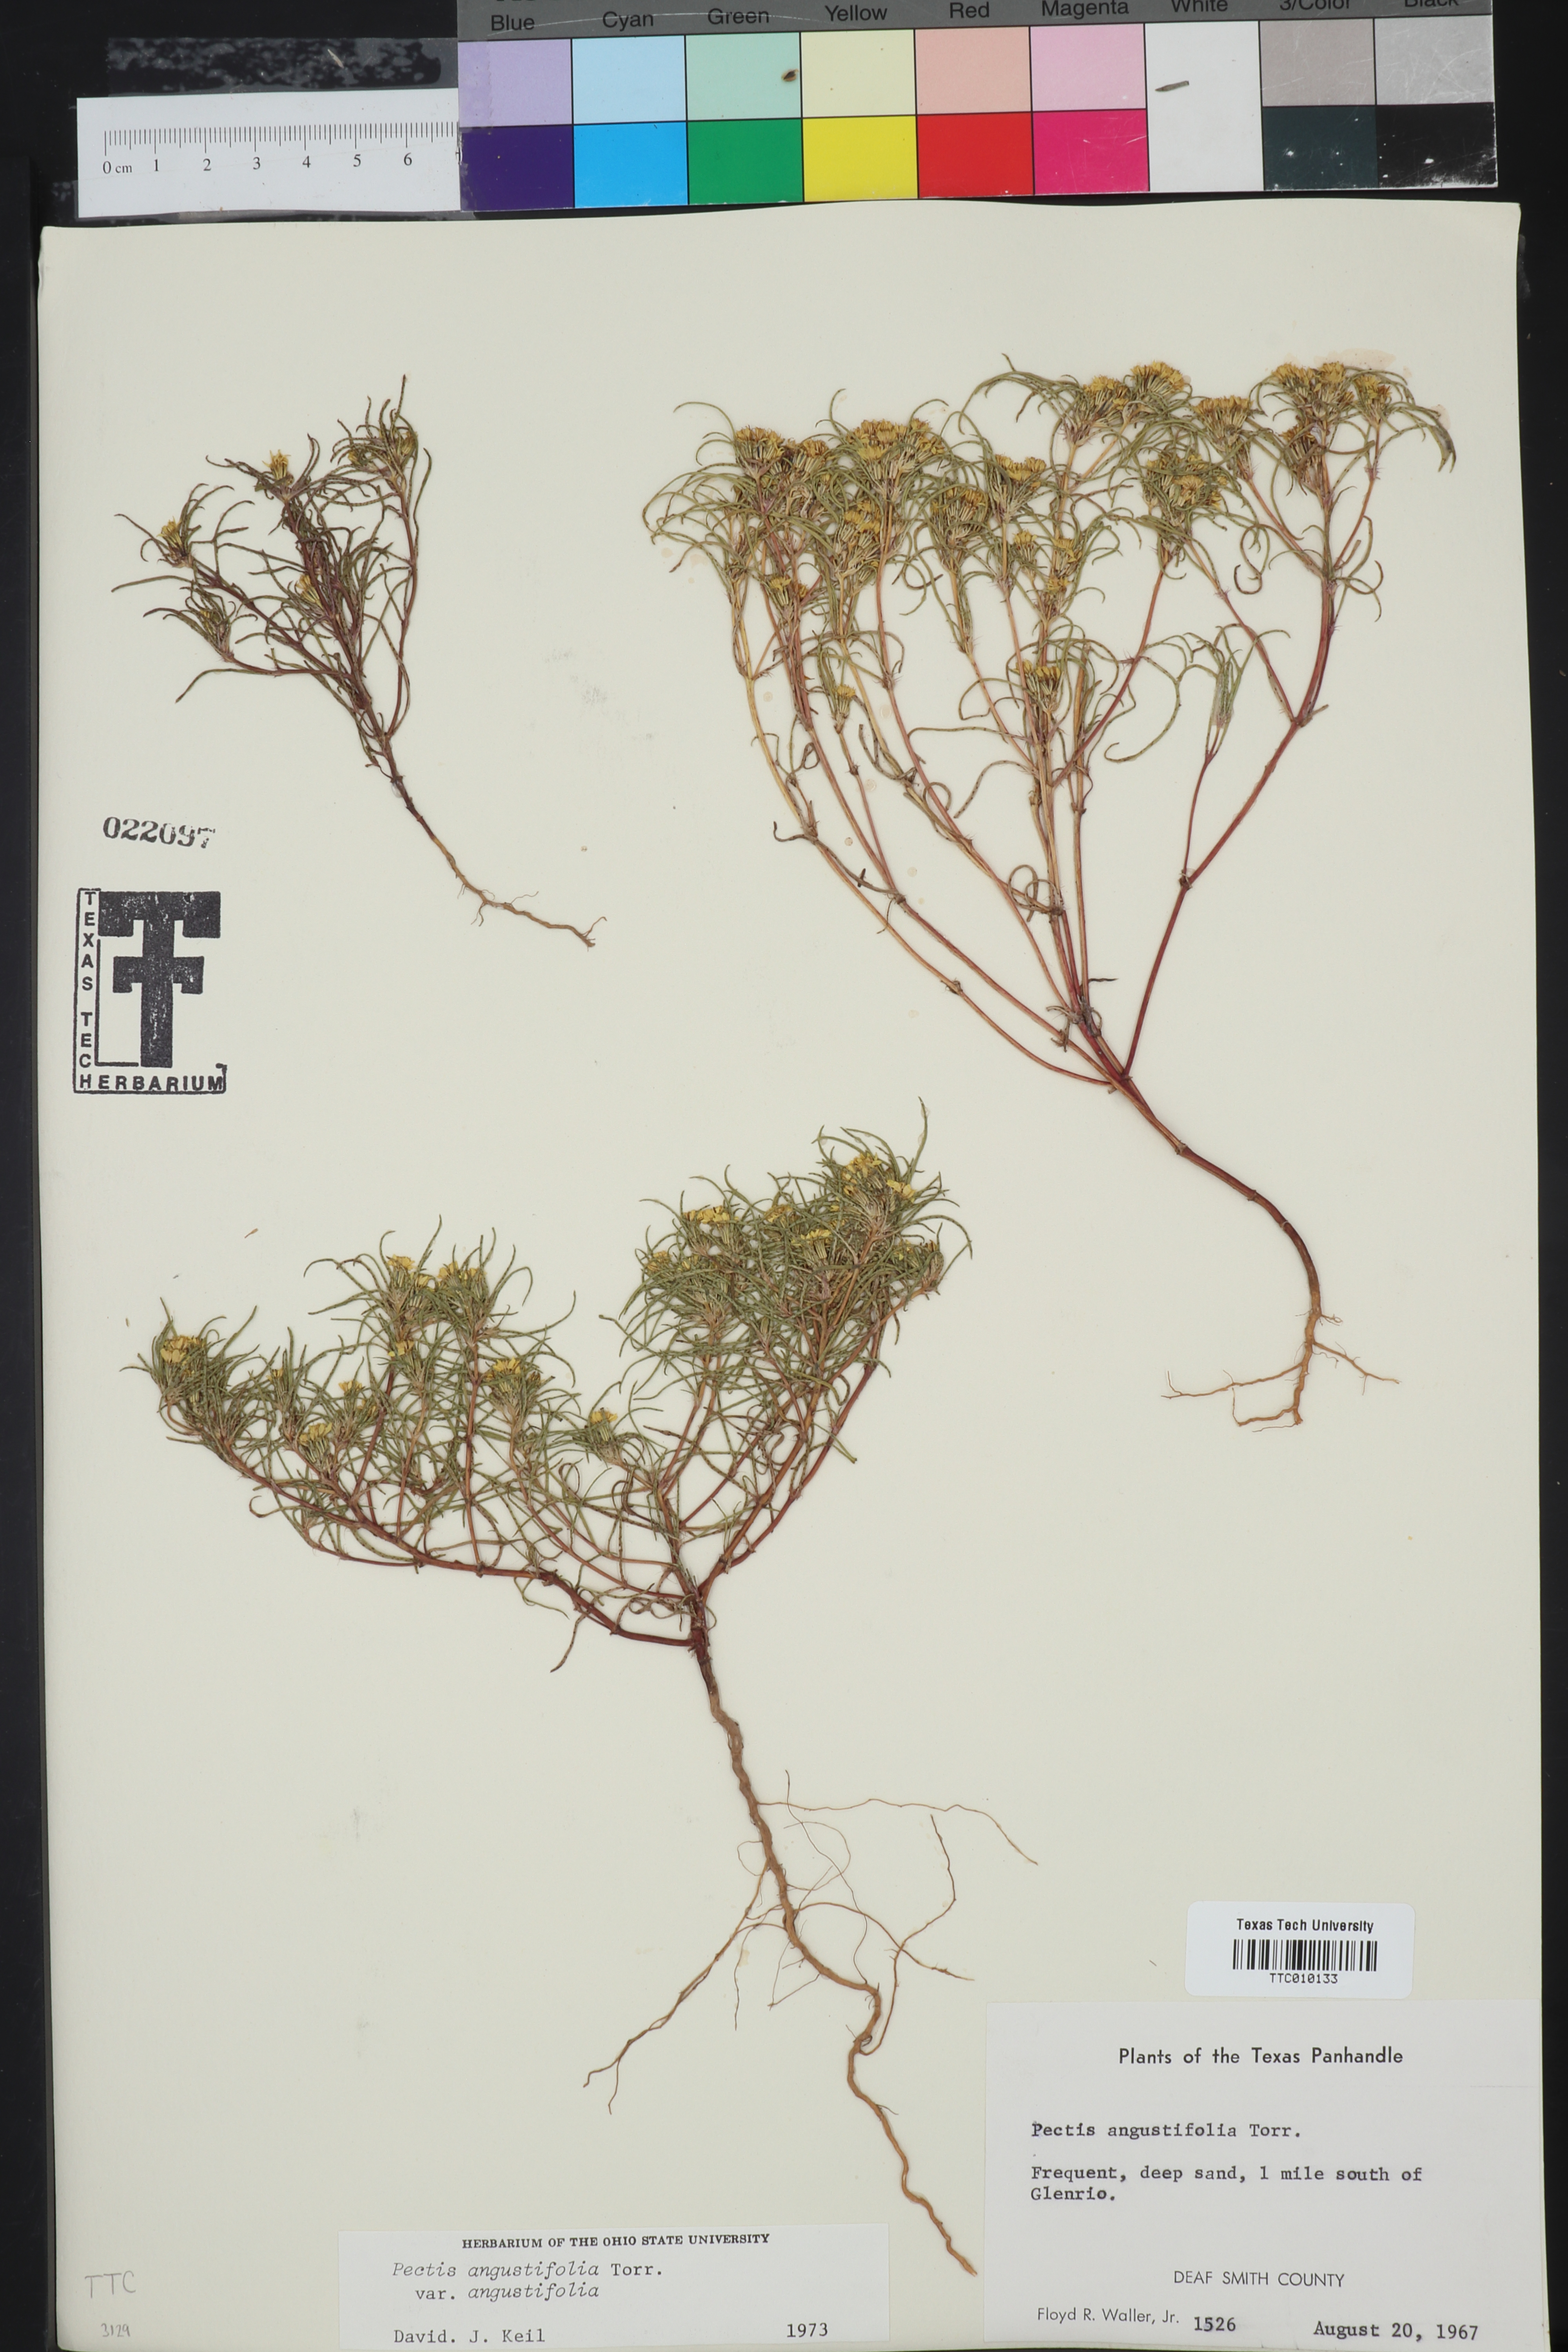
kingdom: Plantae
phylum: Tracheophyta
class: Magnoliopsida
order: Asterales
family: Asteraceae
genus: Pectis
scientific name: Pectis angustifolia
